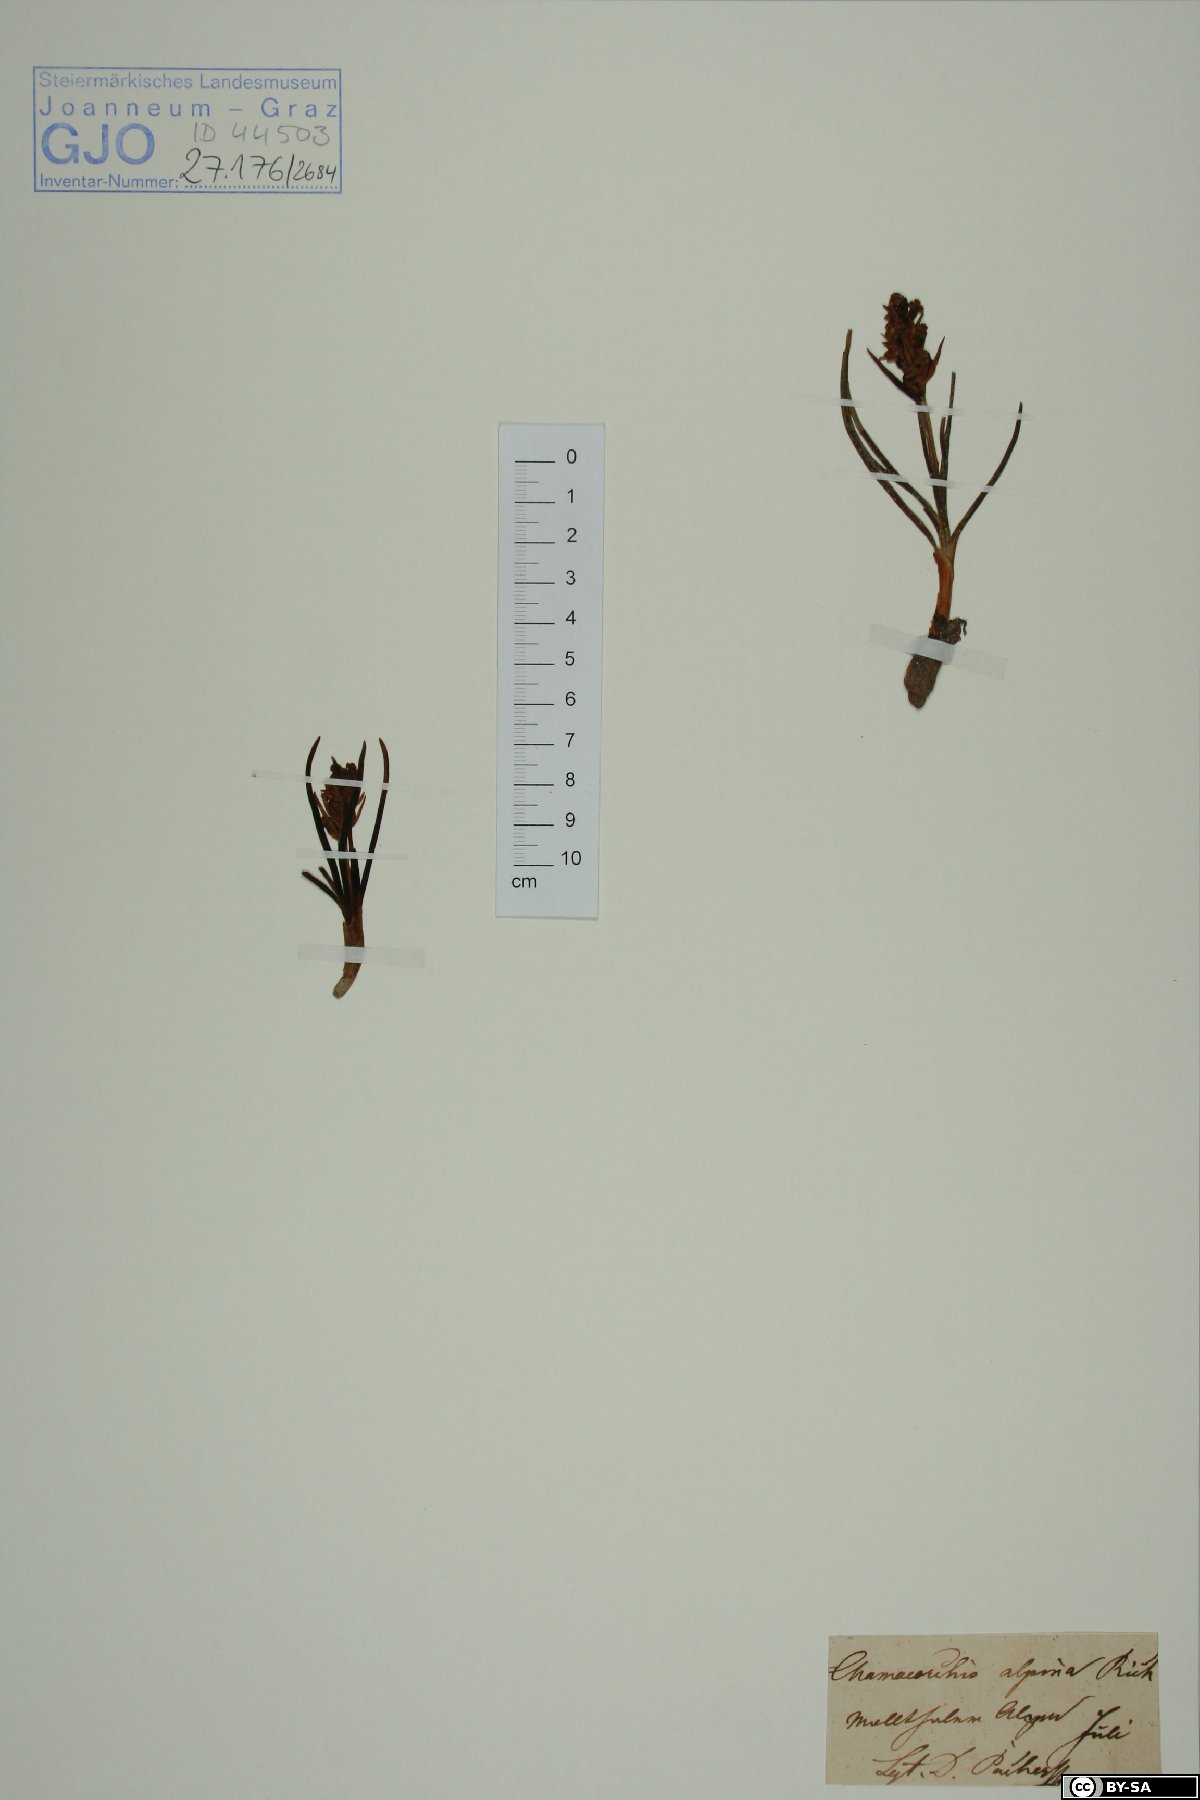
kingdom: Plantae
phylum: Tracheophyta
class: Liliopsida
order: Asparagales
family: Orchidaceae
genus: Chamorchis
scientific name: Chamorchis alpina
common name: Alpine chamorchis
